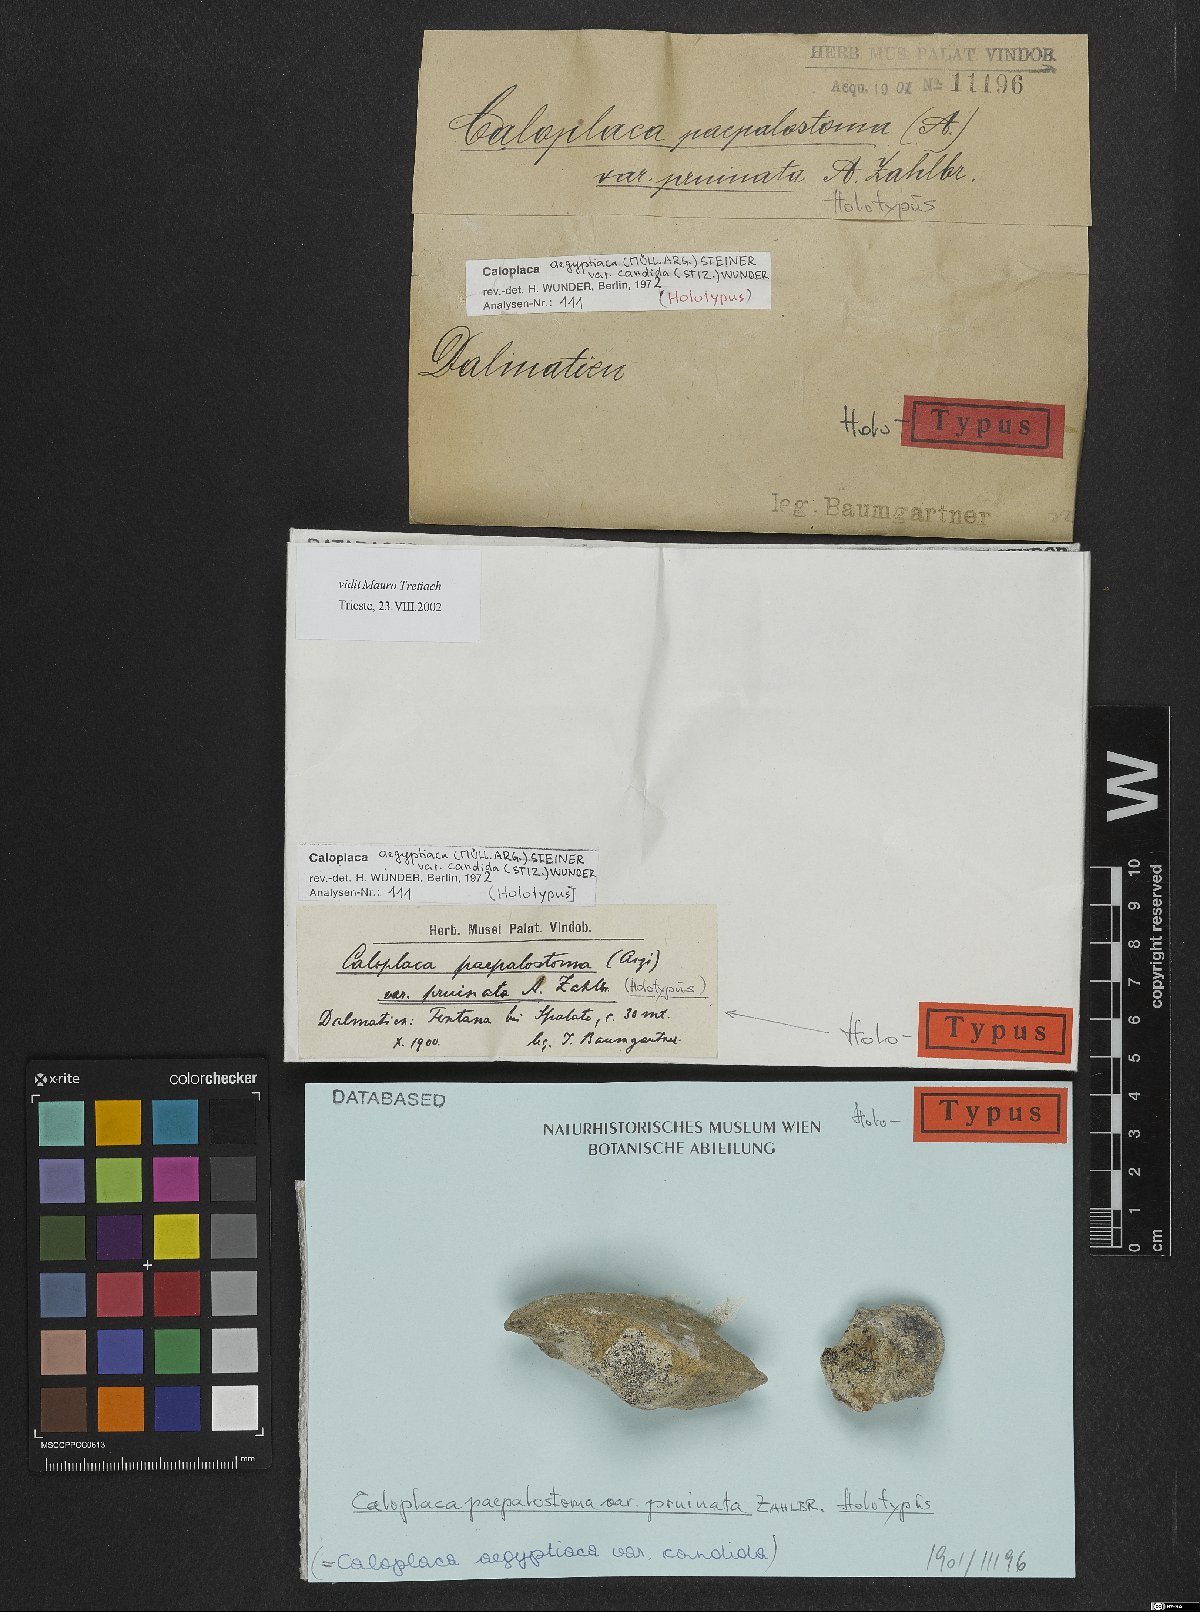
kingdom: Fungi
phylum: Ascomycota
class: Lecanoromycetes
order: Teloschistales
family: Teloschistaceae
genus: Pyrenodesmia
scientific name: Pyrenodesmia variabilis
